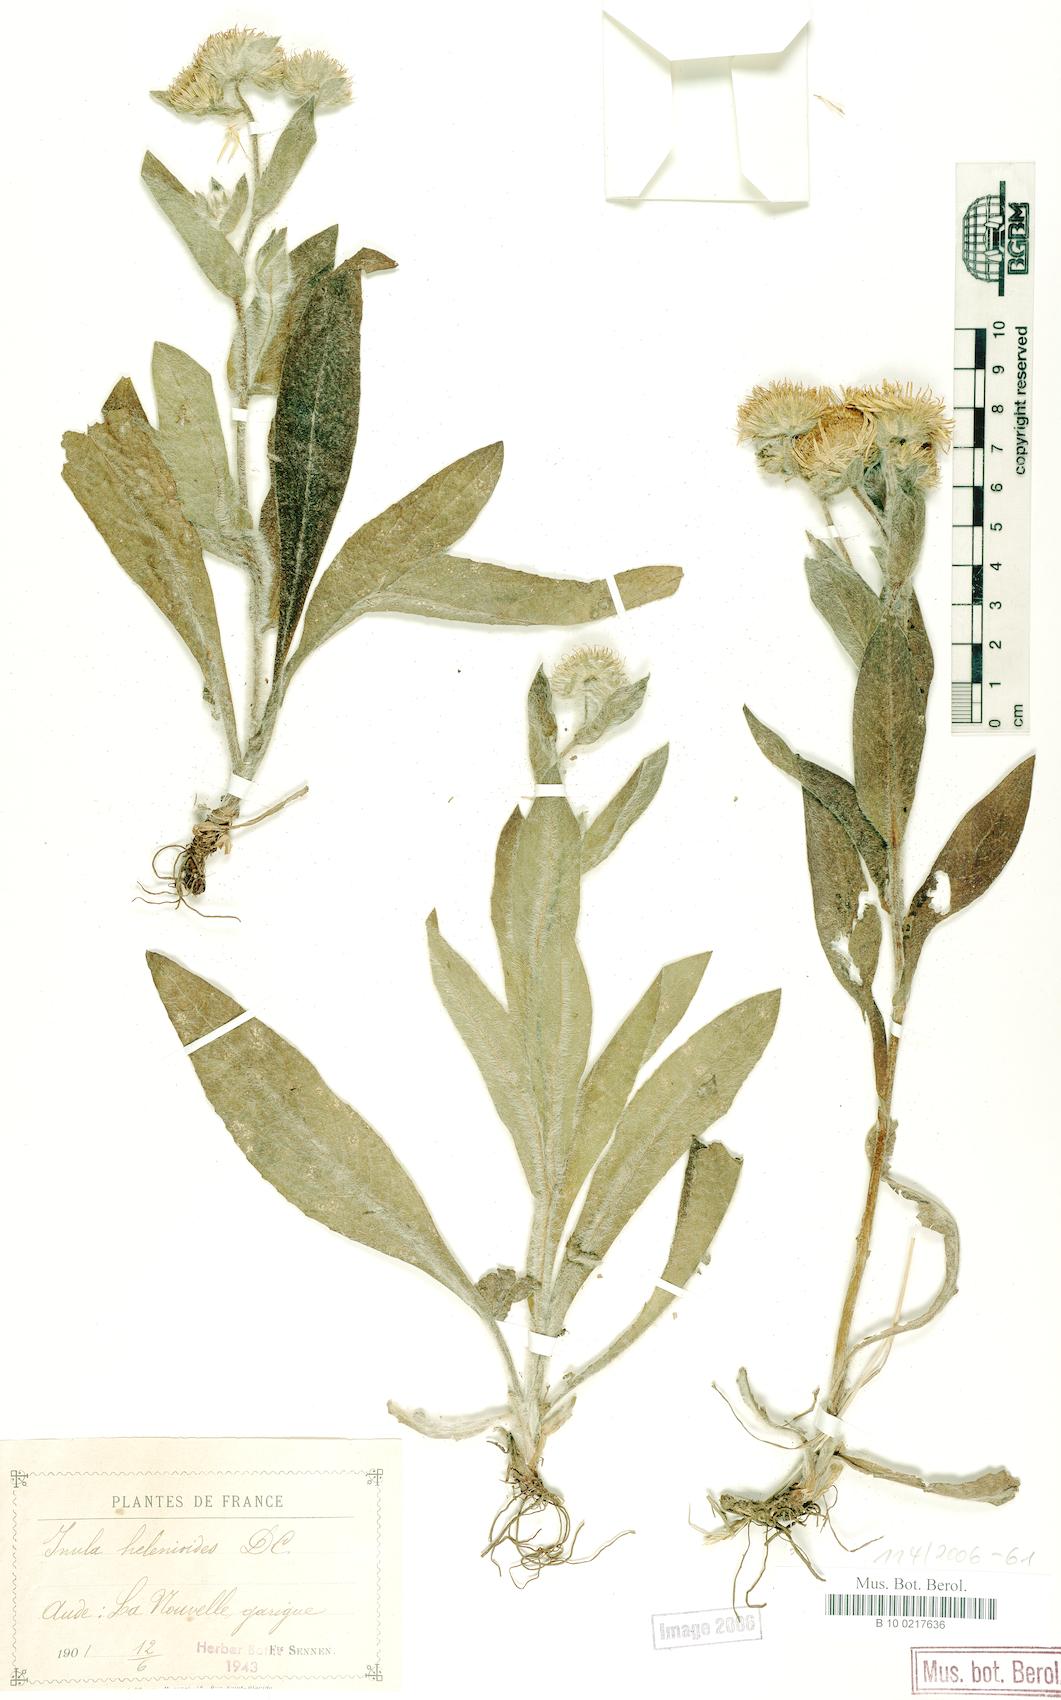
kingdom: Plantae
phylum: Tracheophyta
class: Magnoliopsida
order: Asterales
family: Asteraceae
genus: Pentanema
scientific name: Pentanema helenioides
